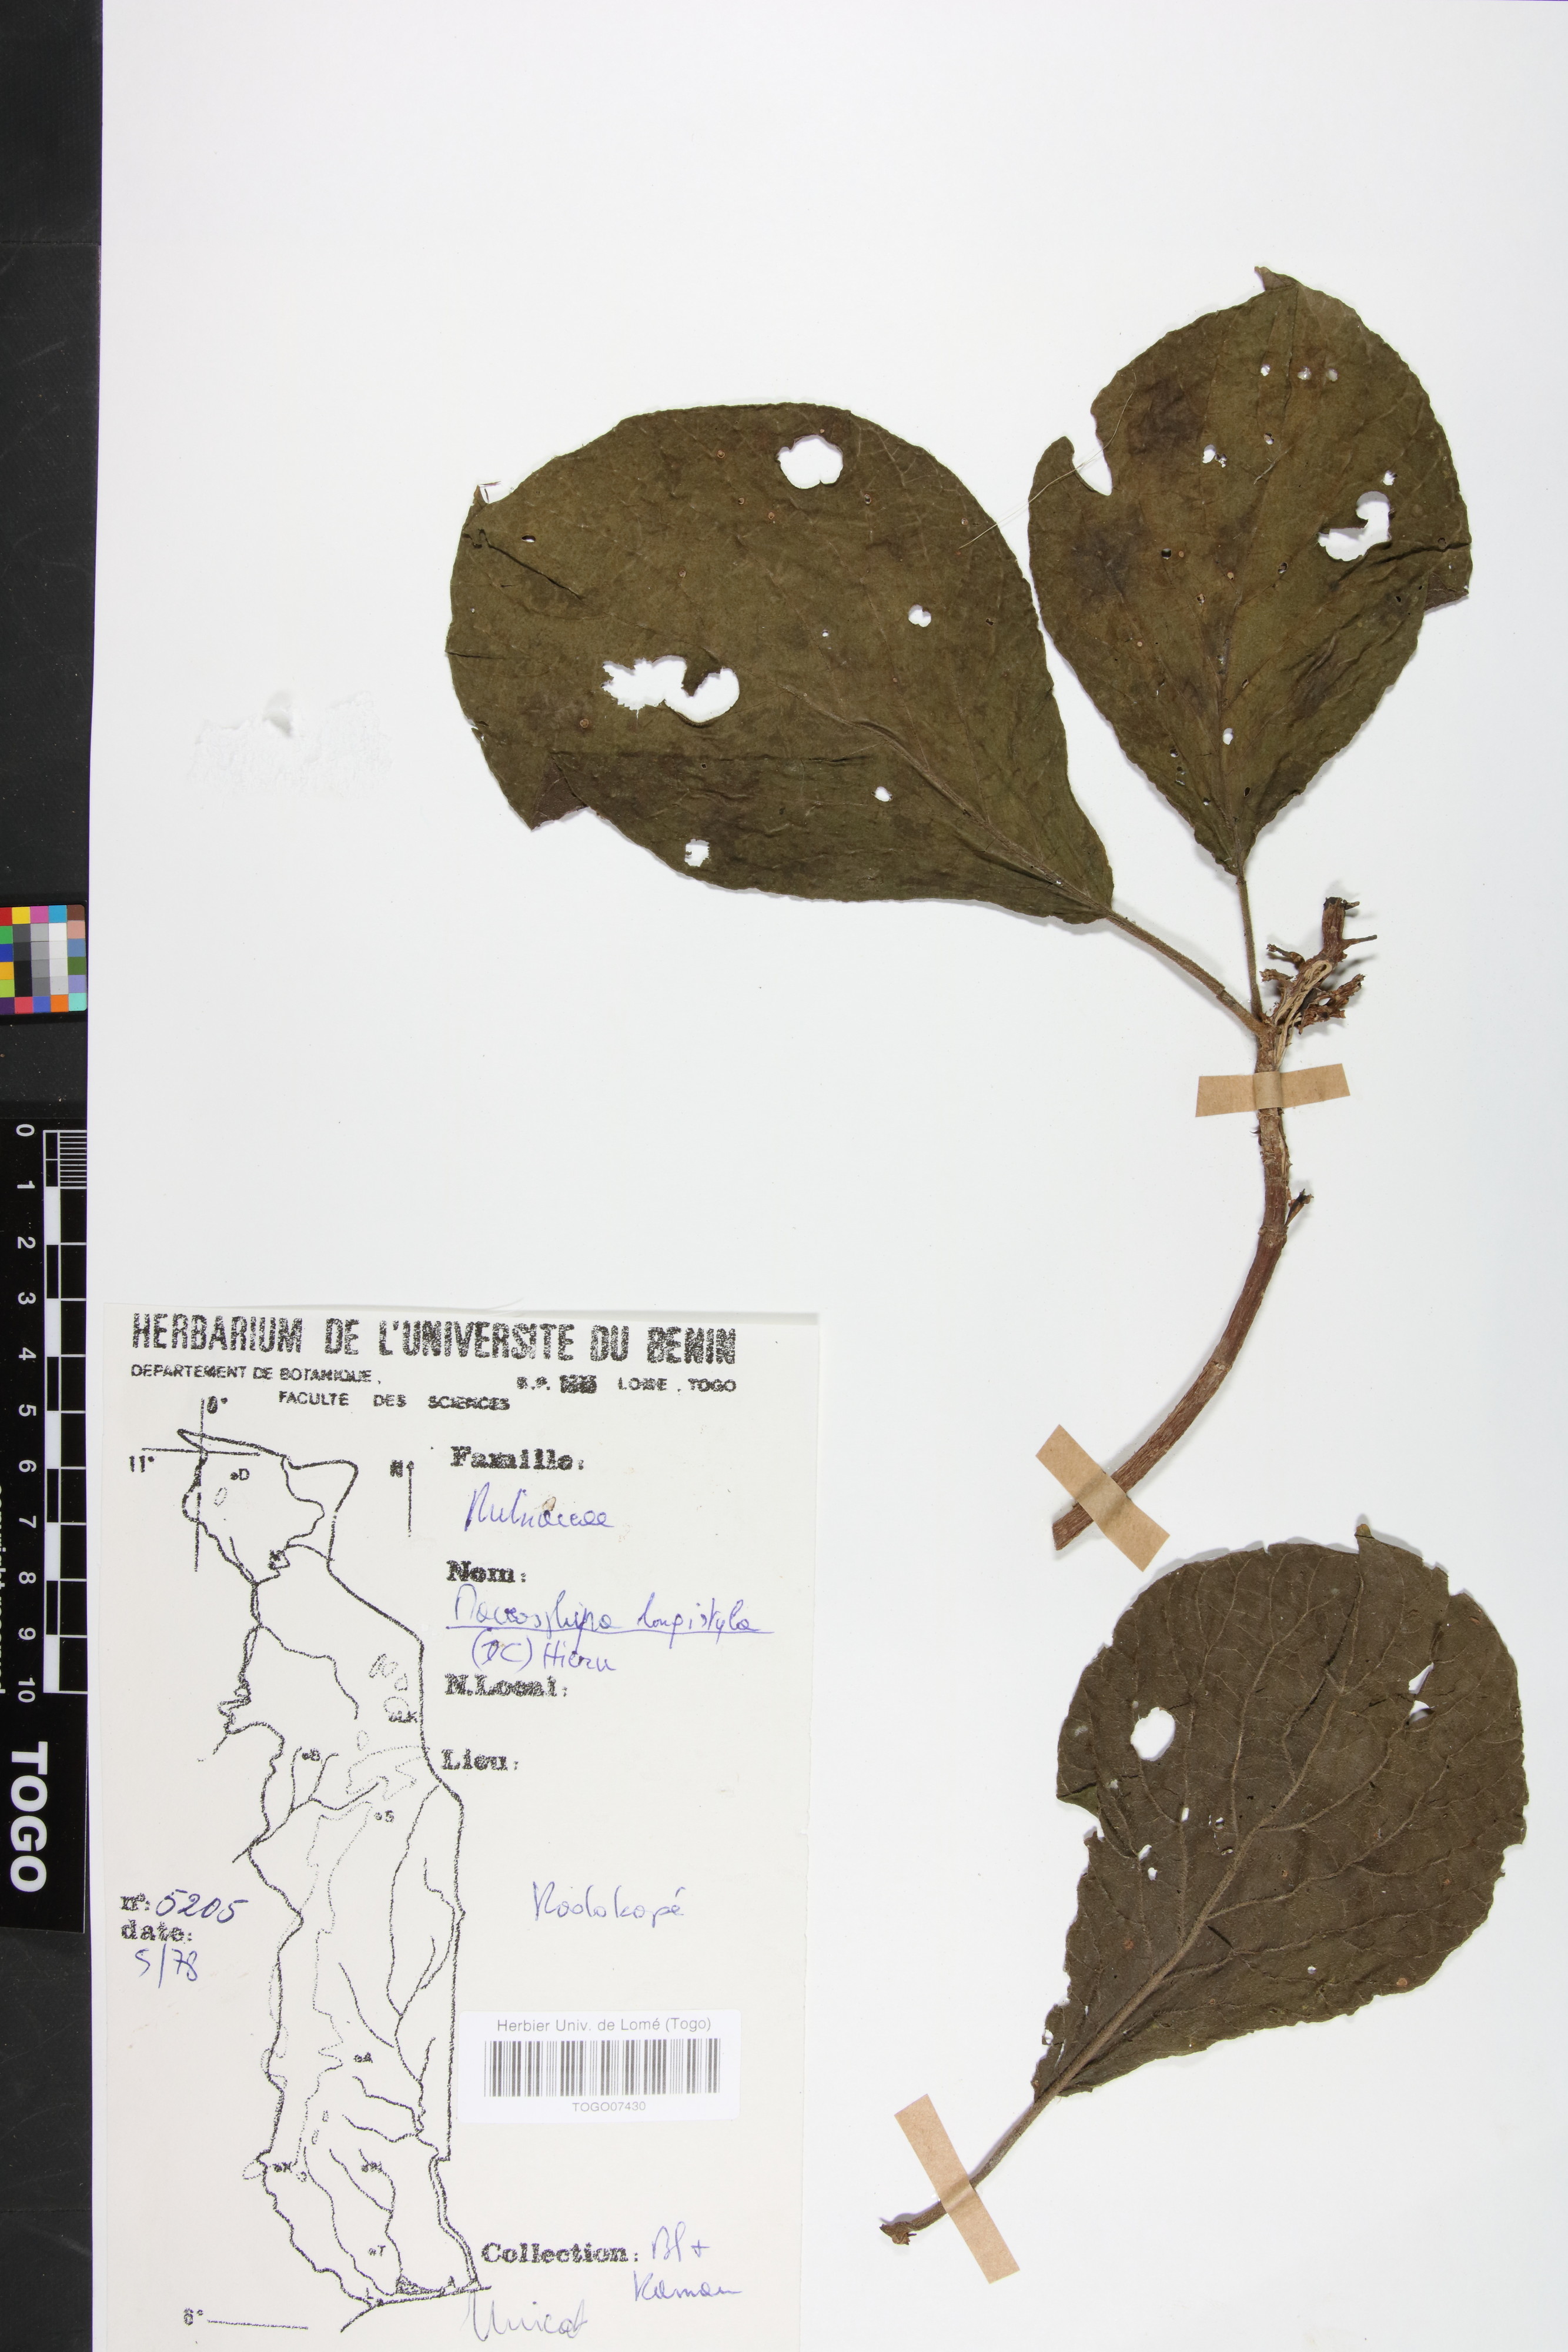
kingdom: Plantae
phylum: Tracheophyta
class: Magnoliopsida
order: Gentianales
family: Rubiaceae
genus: Macrosphyra
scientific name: Macrosphyra longistyla
